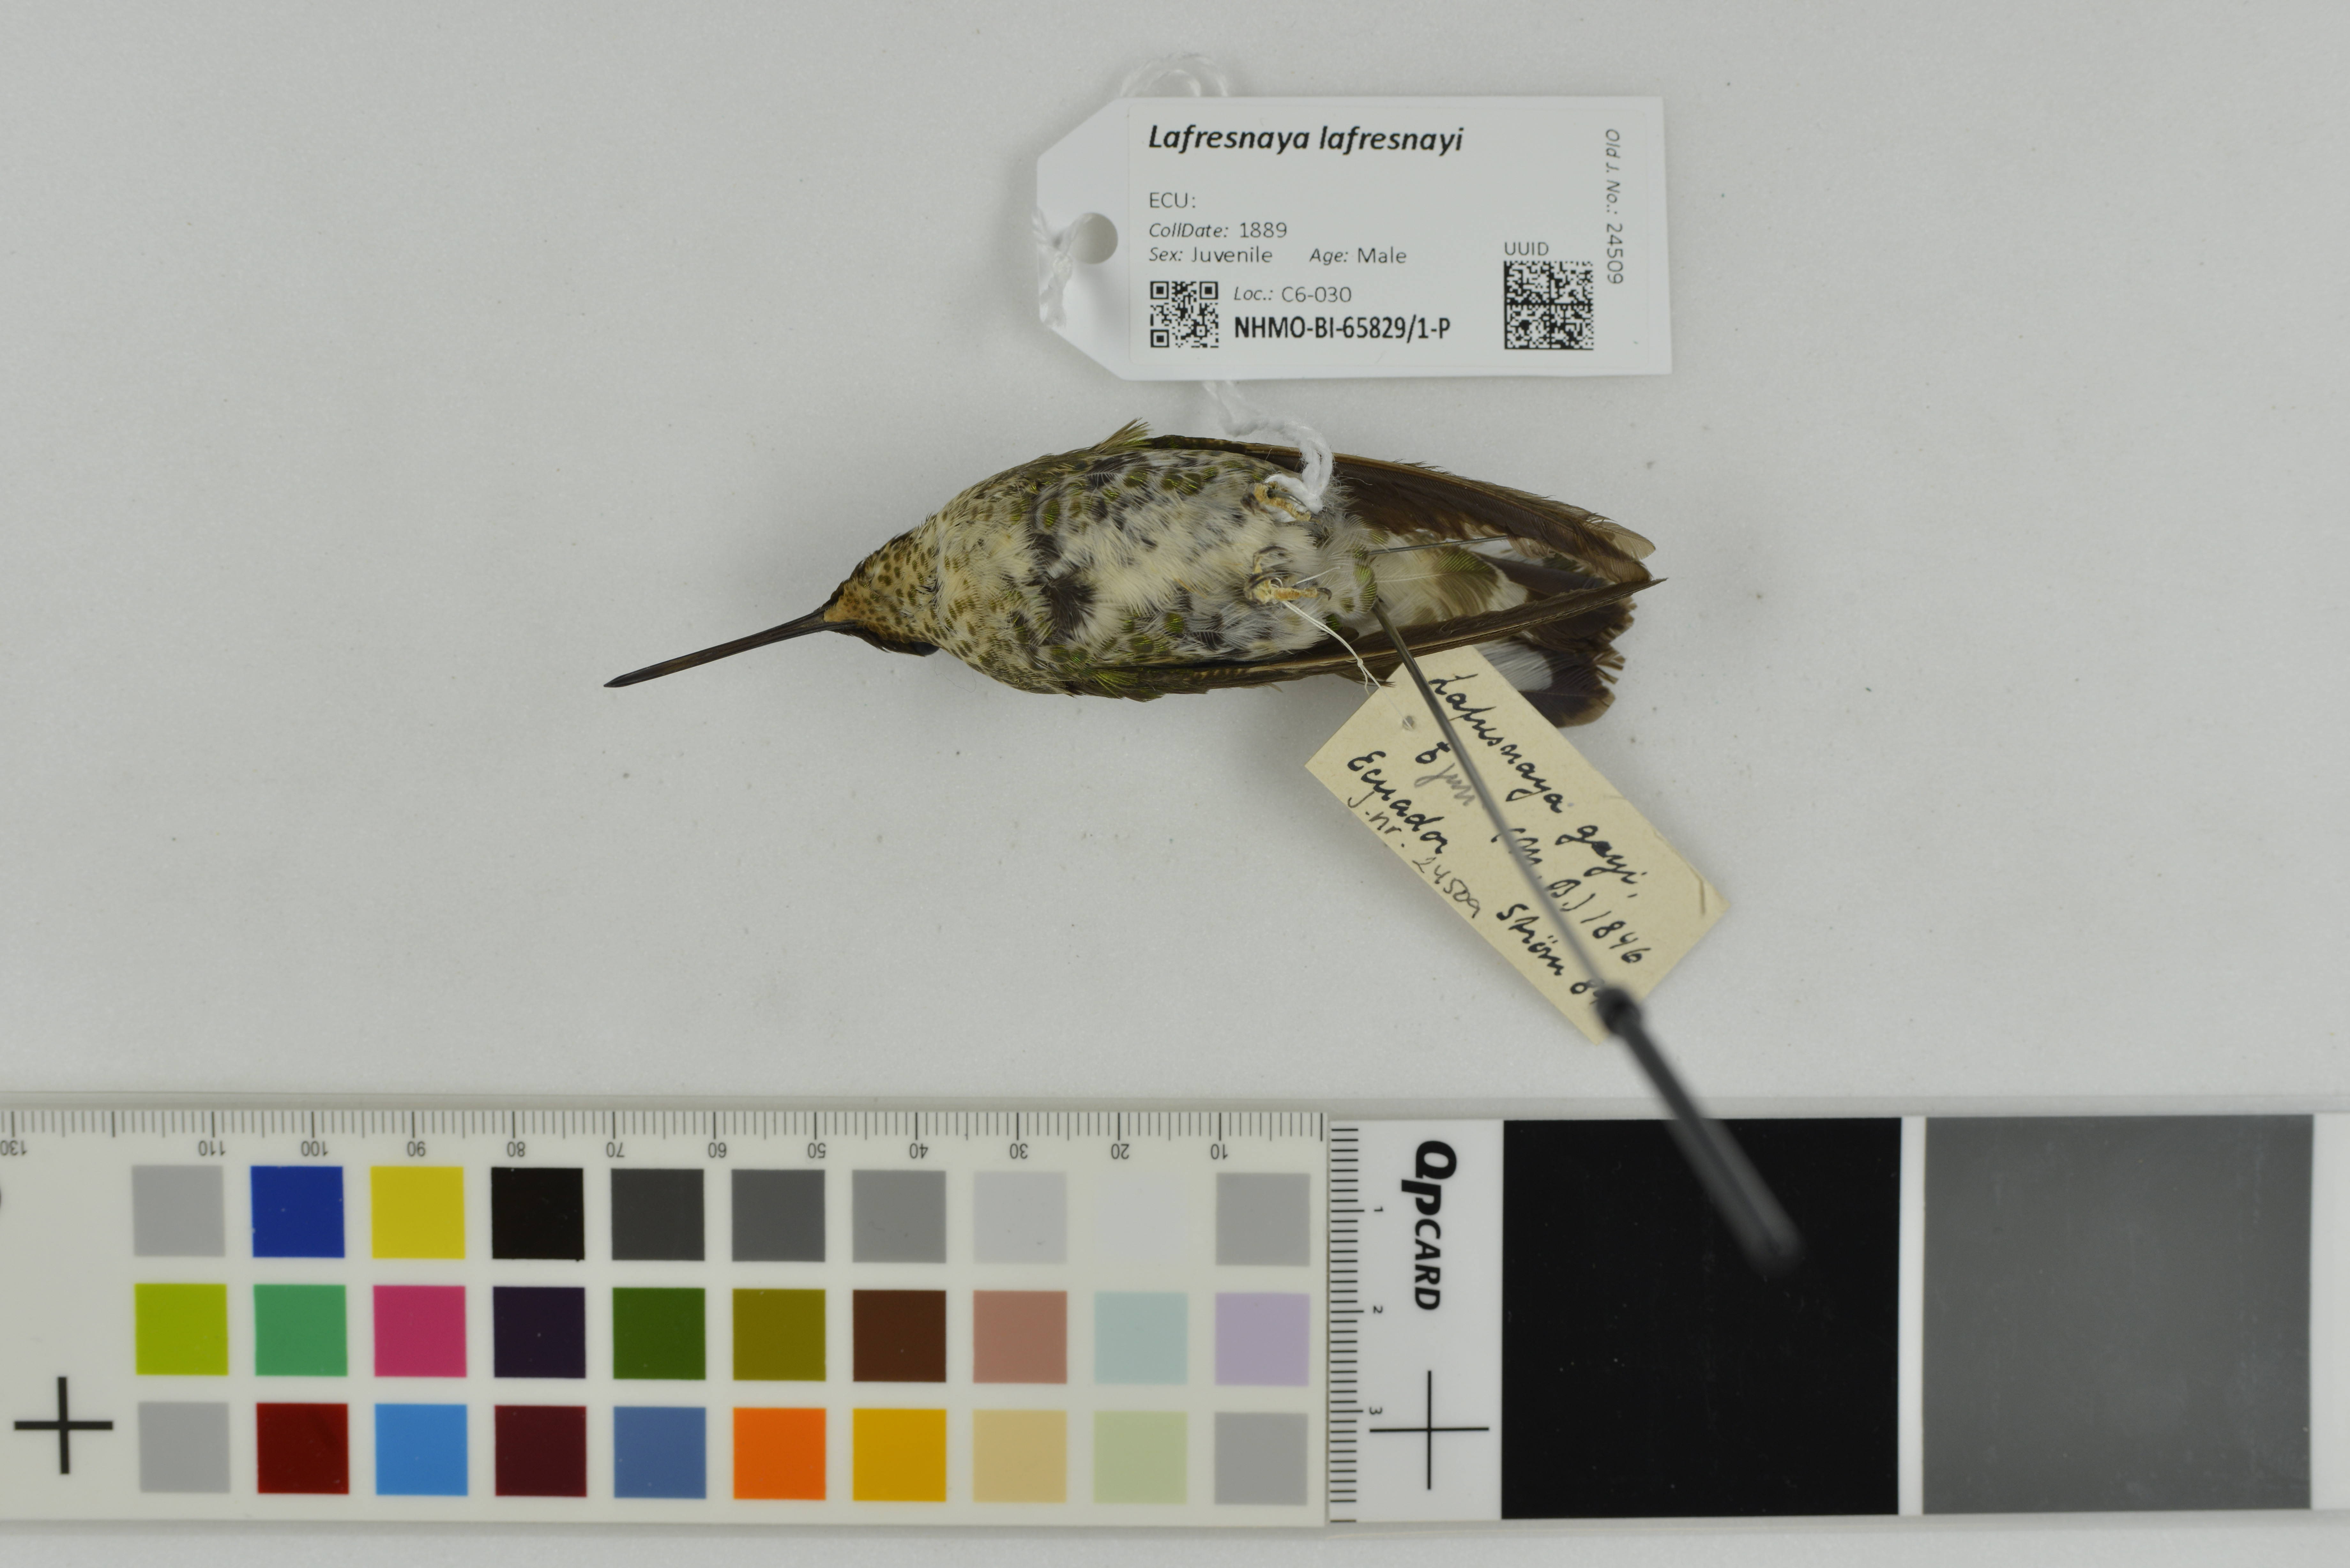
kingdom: Animalia
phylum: Chordata
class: Aves
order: Apodiformes
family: Trochilidae
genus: Lafresnaya
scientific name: Lafresnaya lafresnayi
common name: Mountain velvetbreast
